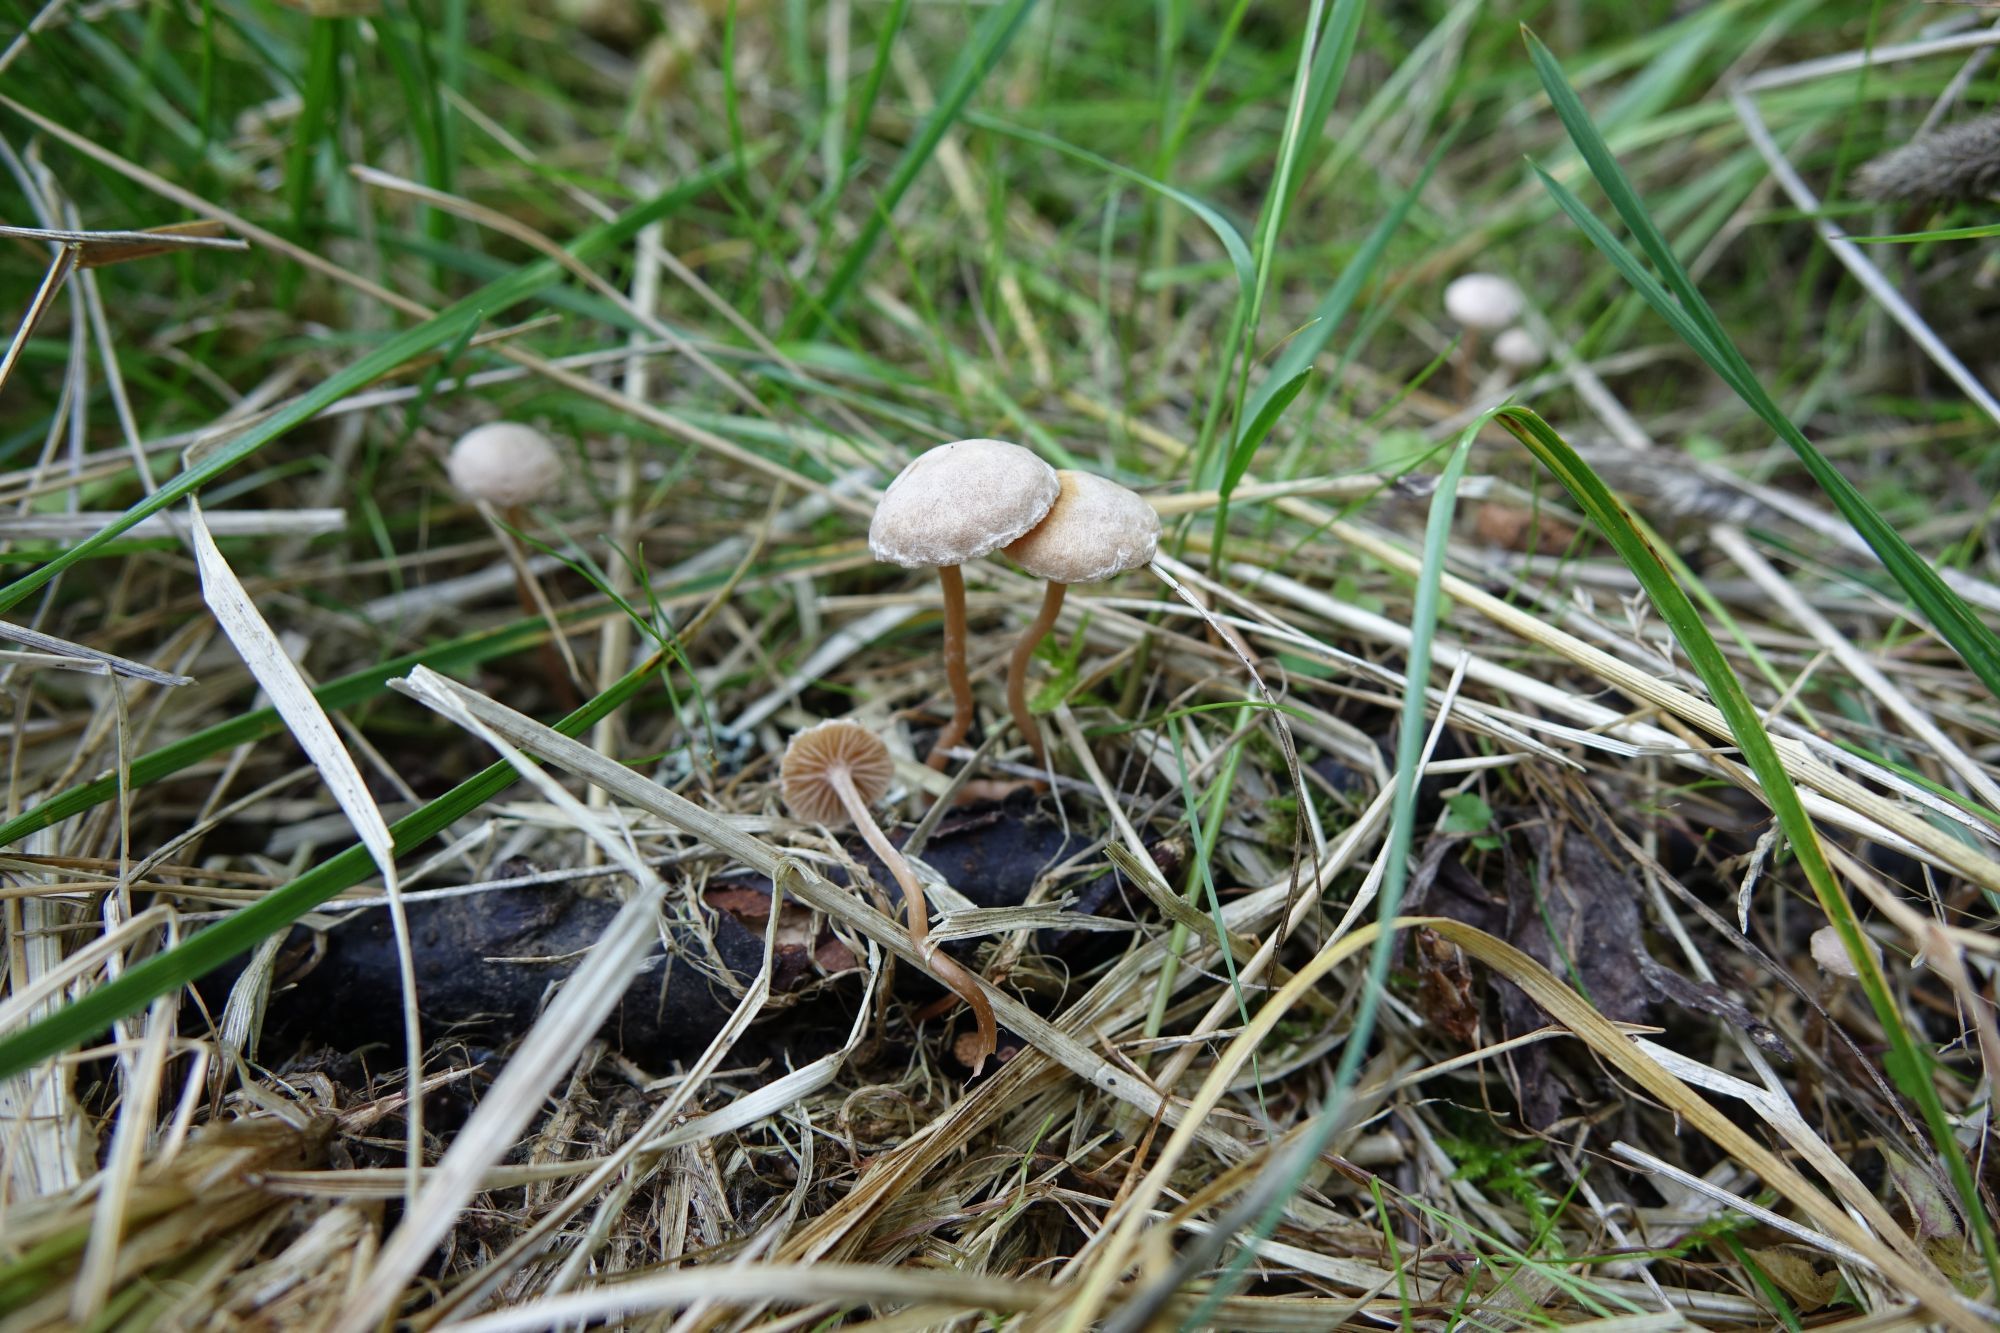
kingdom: Fungi
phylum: Basidiomycota
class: Agaricomycetes
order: Agaricales
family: Tubariaceae
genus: Tubaria
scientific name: Tubaria conspersa
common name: Felted twiglet
